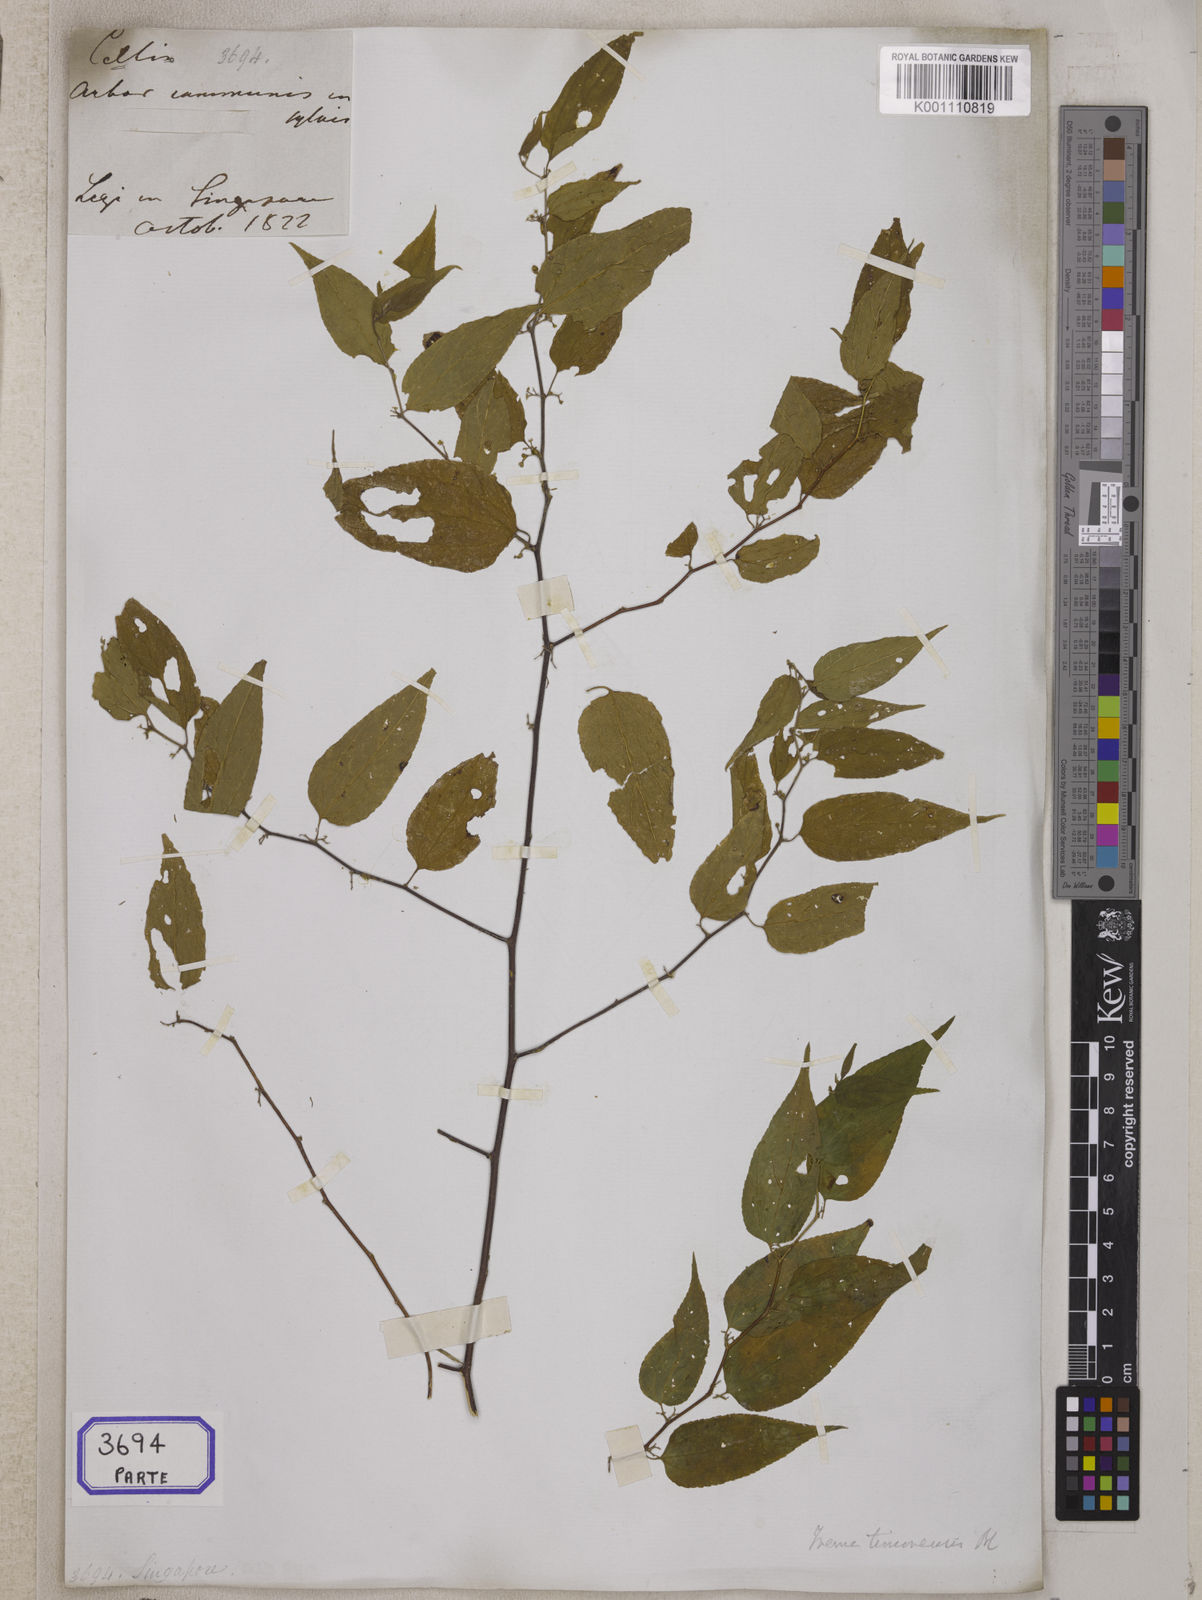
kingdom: Plantae
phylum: Tracheophyta
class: Magnoliopsida
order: Rosales
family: Cannabaceae
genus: Trema
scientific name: Trema cannabina
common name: Poison-peach
